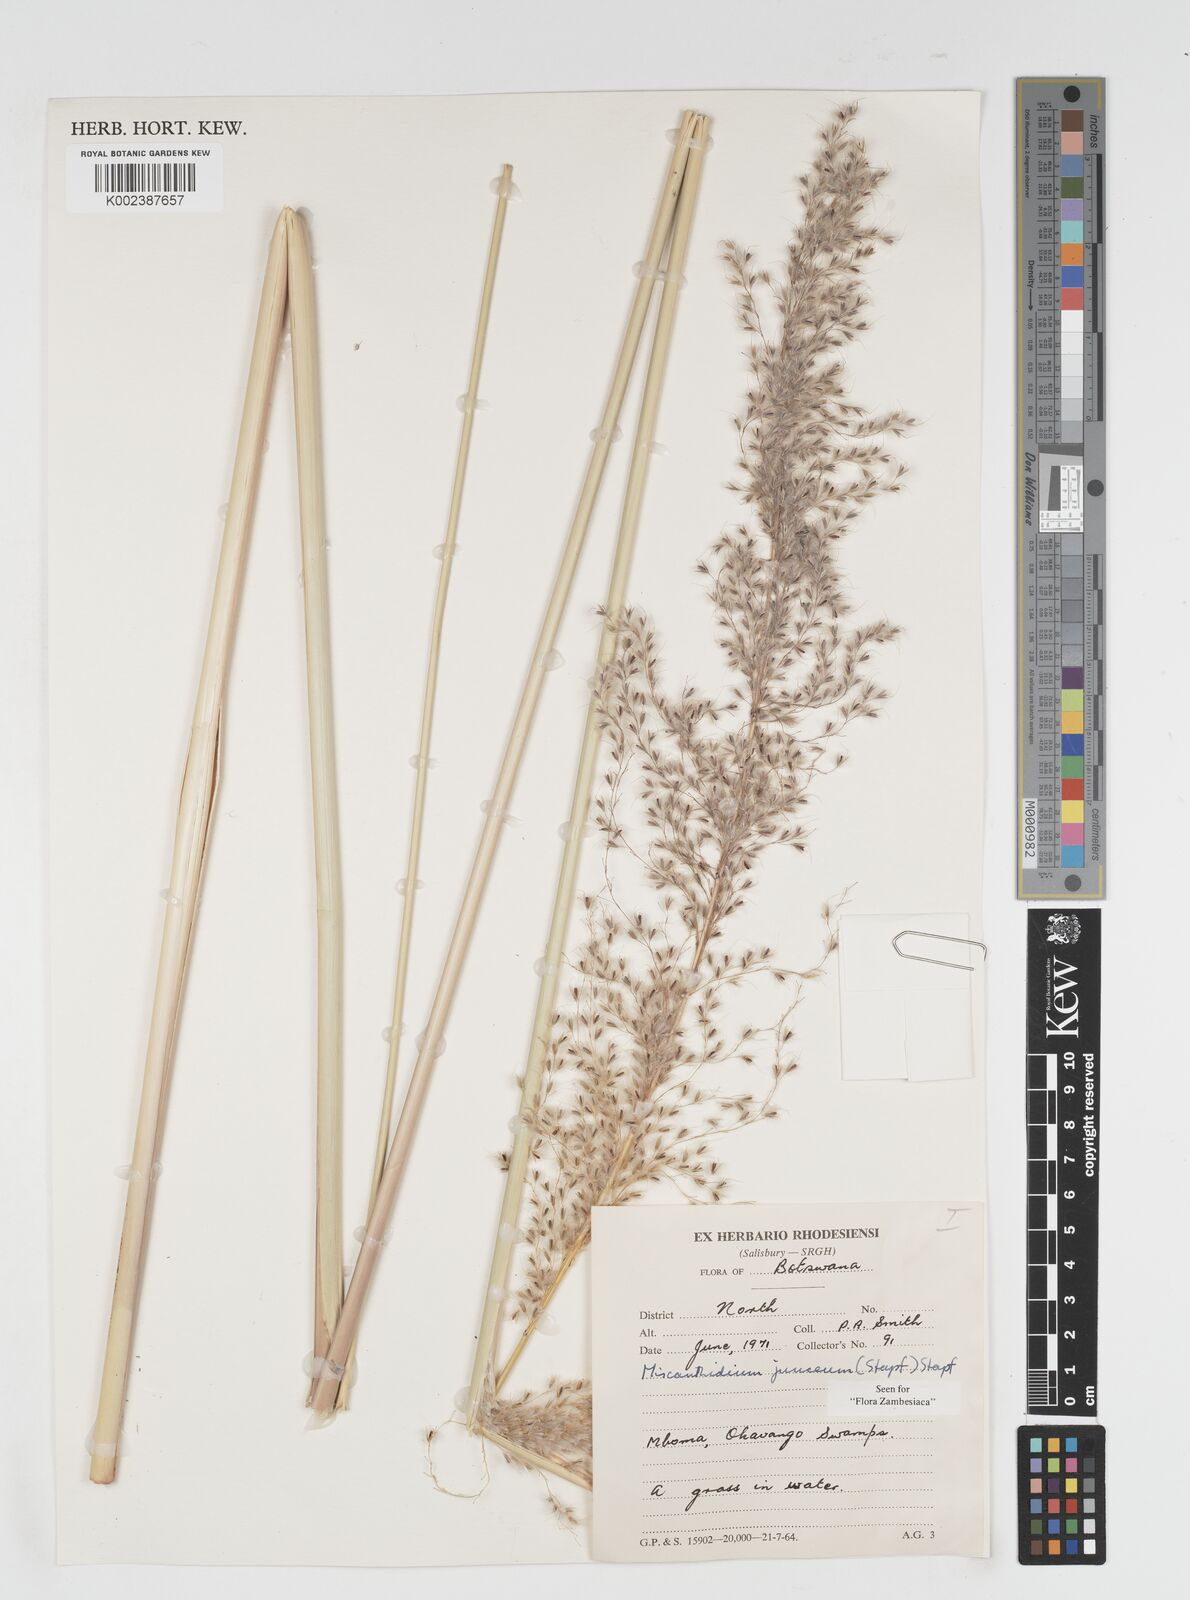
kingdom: Plantae
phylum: Tracheophyta
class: Liliopsida
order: Poales
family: Poaceae
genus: Miscanthidium
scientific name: Miscanthidium junceum
